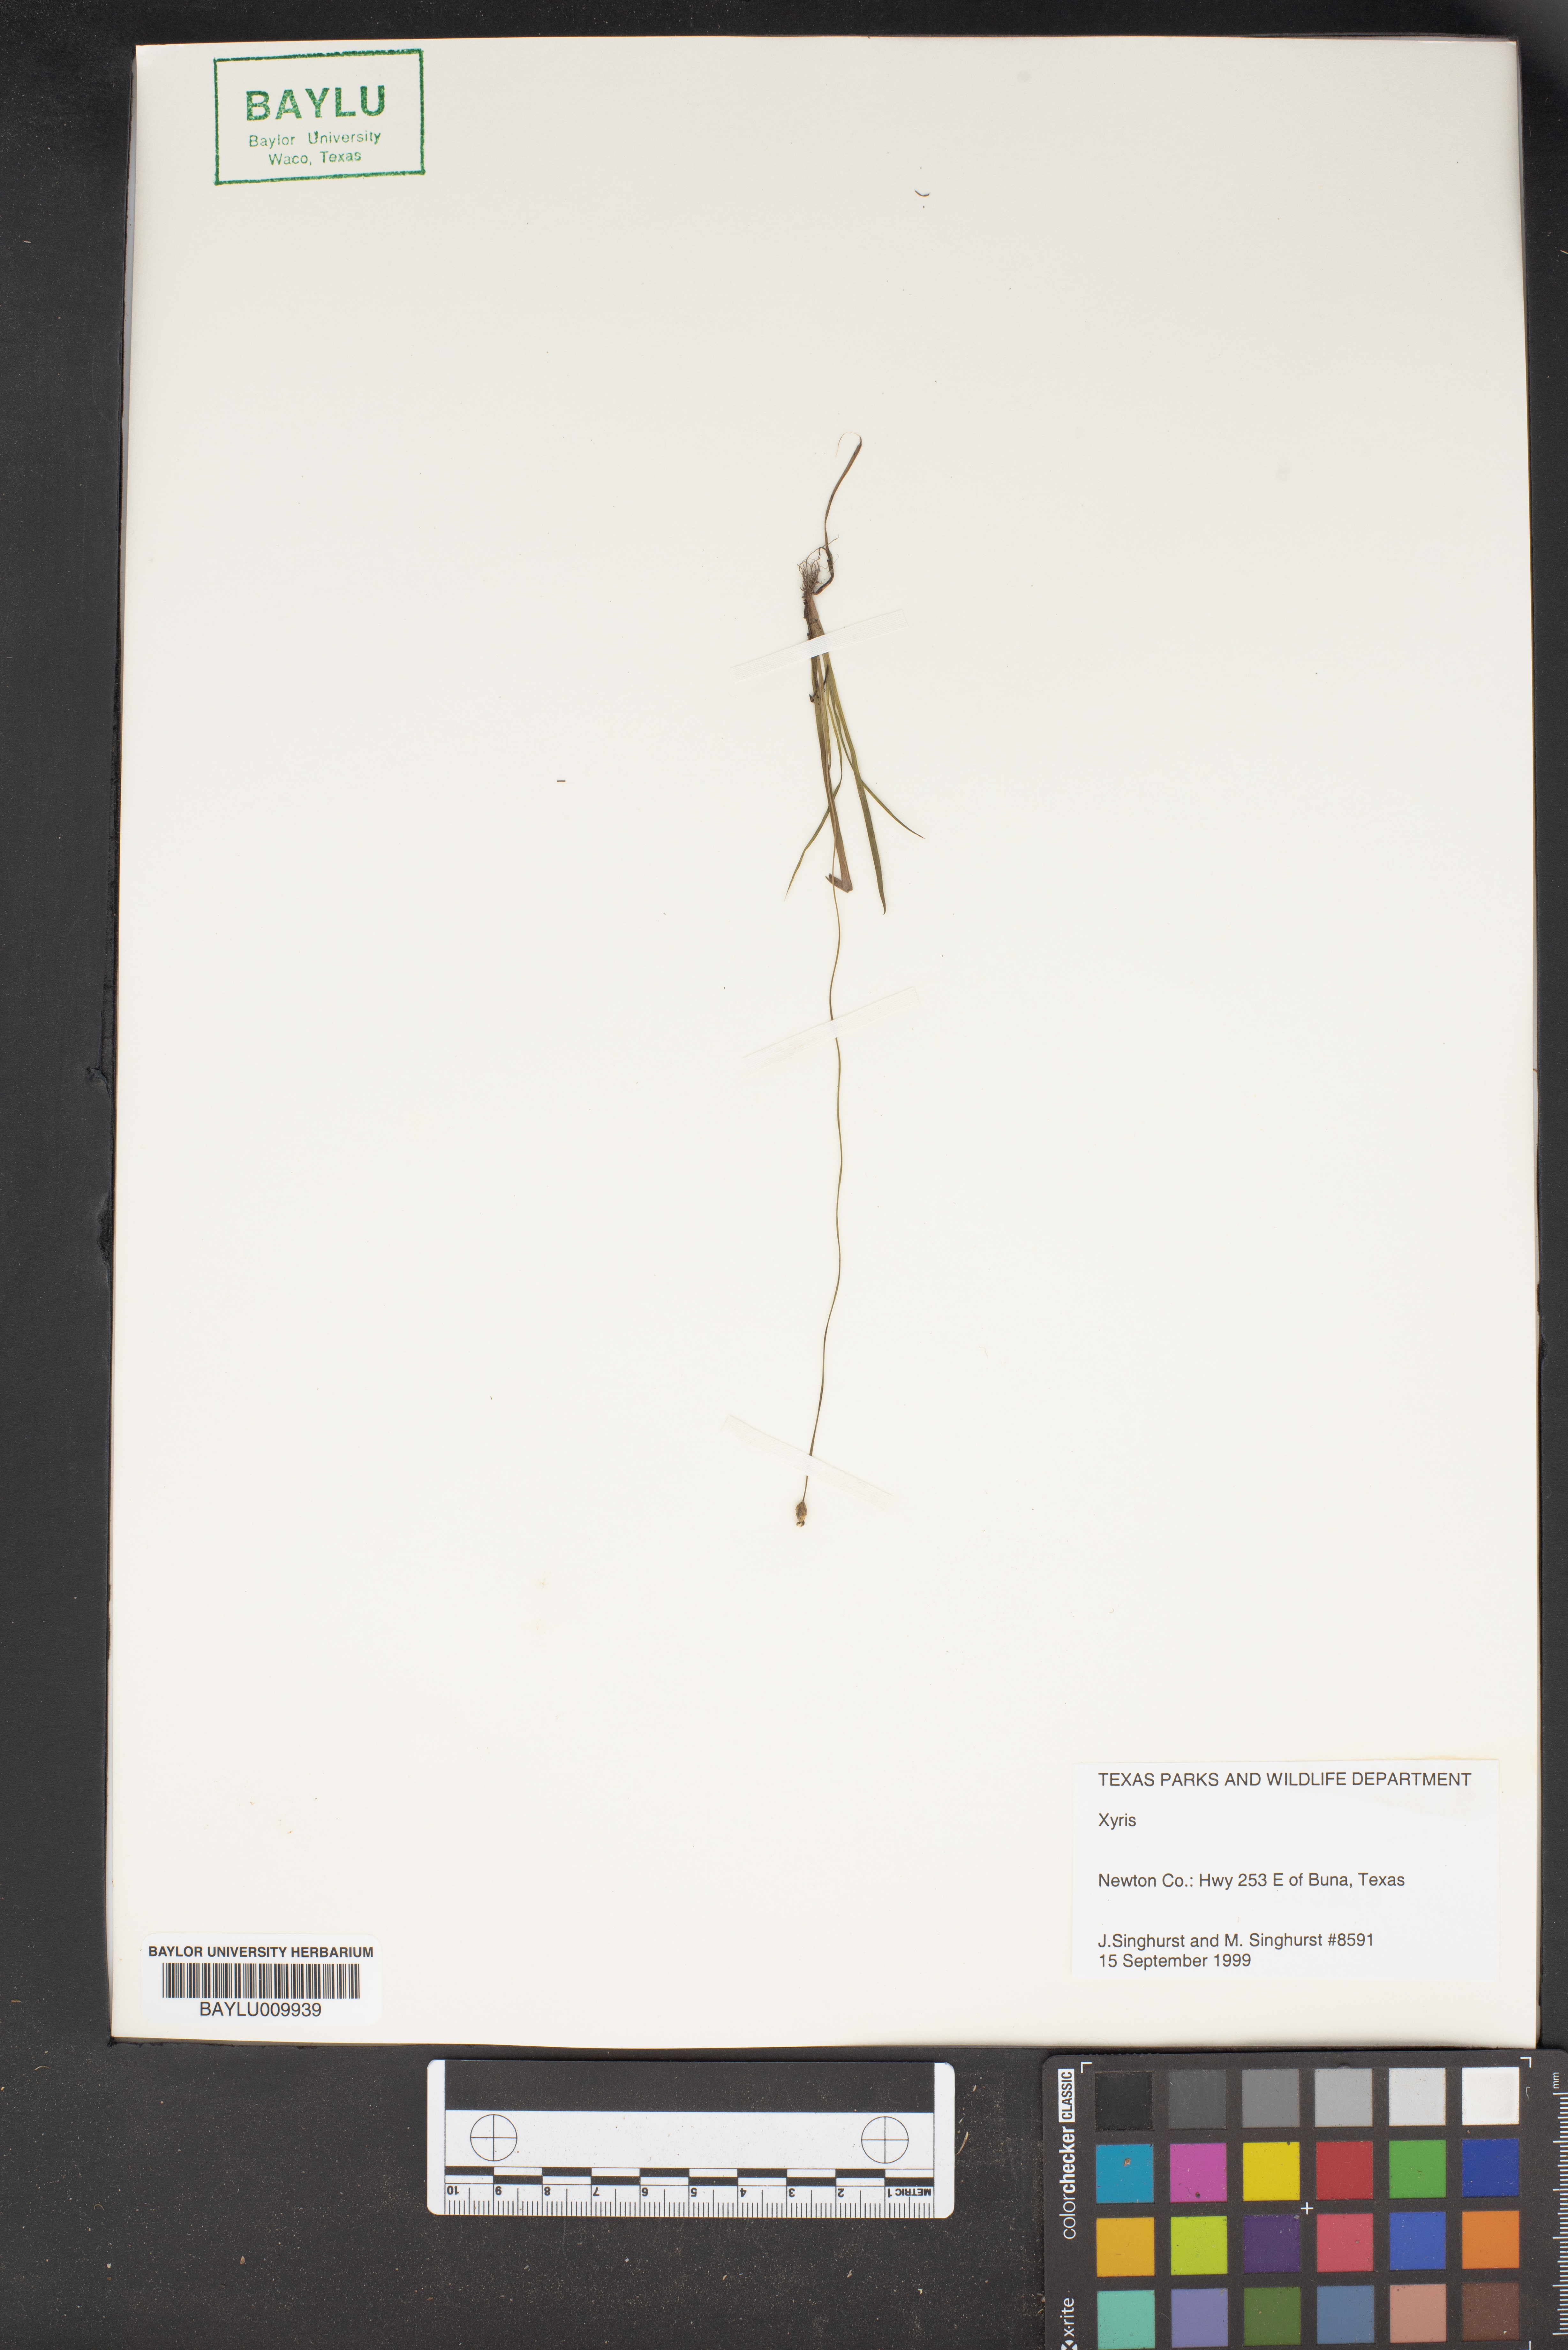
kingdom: Plantae
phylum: Tracheophyta
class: Liliopsida
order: Poales
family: Xyridaceae
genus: Xyris
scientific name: Xyris
